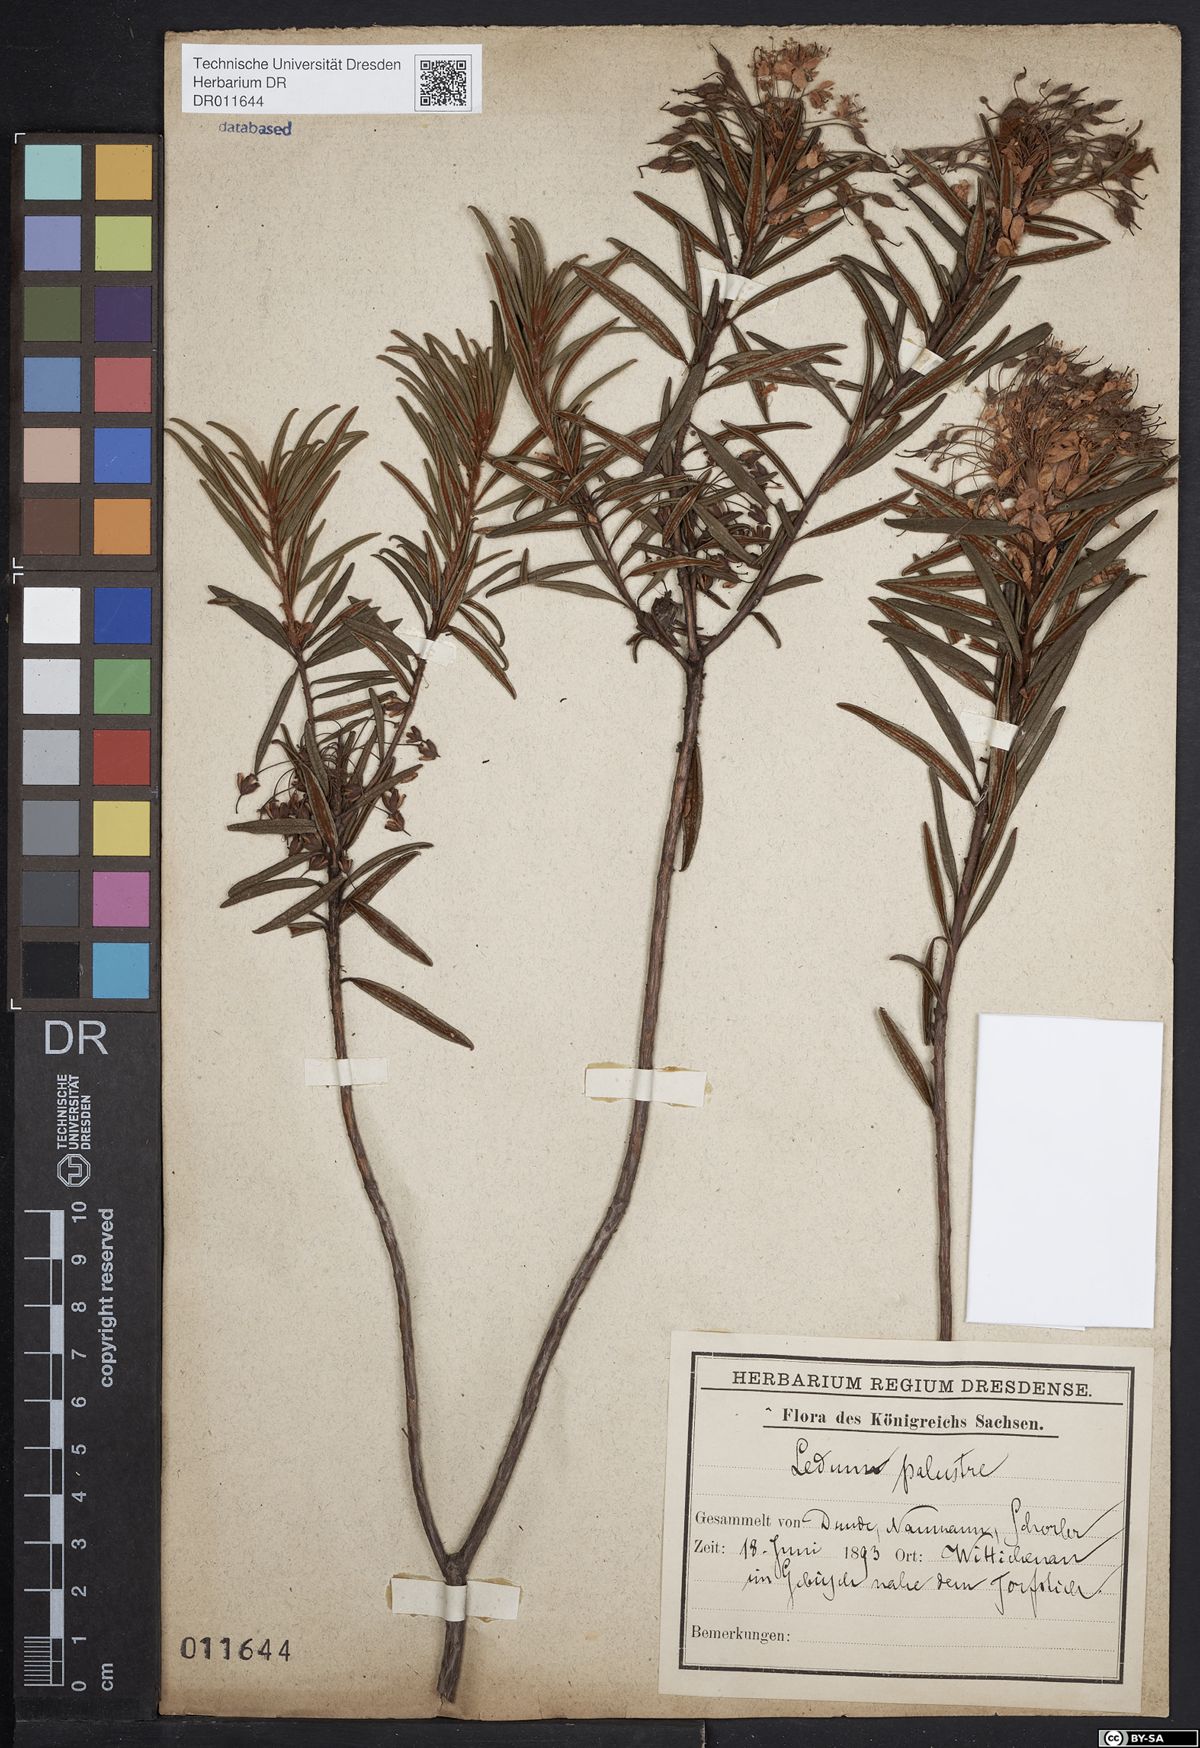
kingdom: Plantae
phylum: Tracheophyta
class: Magnoliopsida
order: Ericales
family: Ericaceae
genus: Rhododendron
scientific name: Rhododendron tomentosum
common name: Marsh labrador tea
